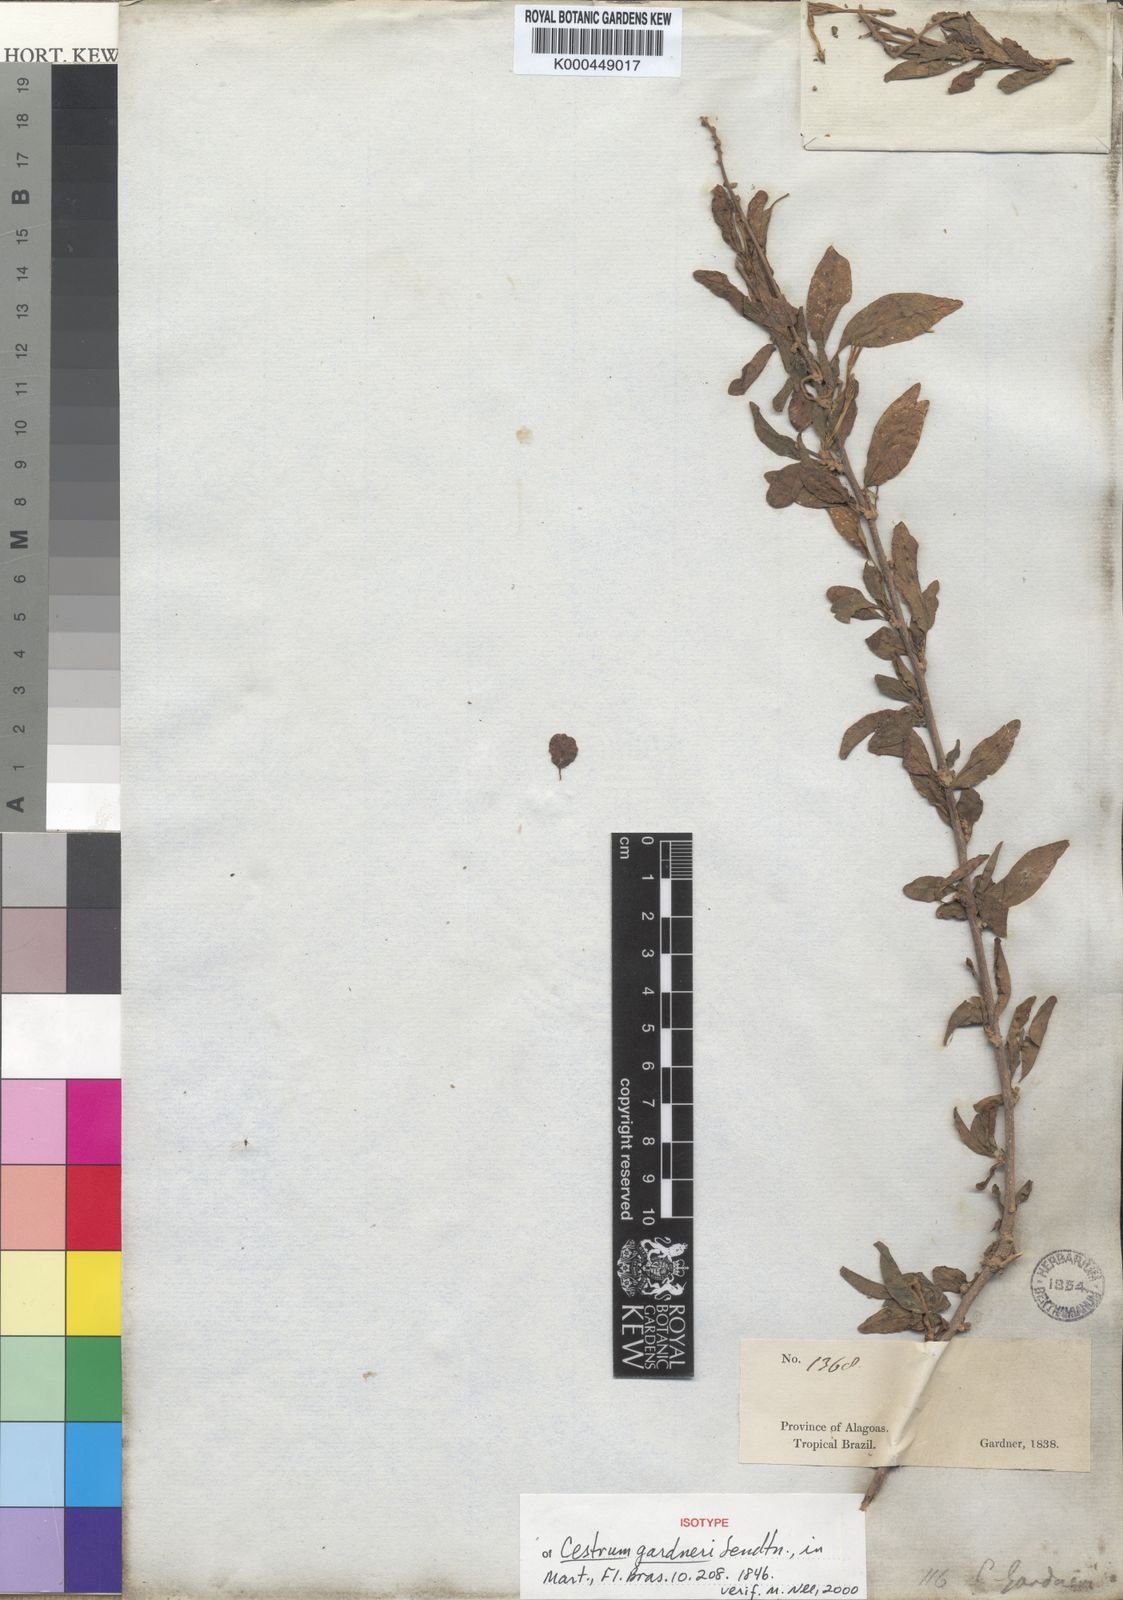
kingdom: Plantae
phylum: Tracheophyta
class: Magnoliopsida
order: Solanales
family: Solanaceae
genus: Cestrum
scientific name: Cestrum gardneri
